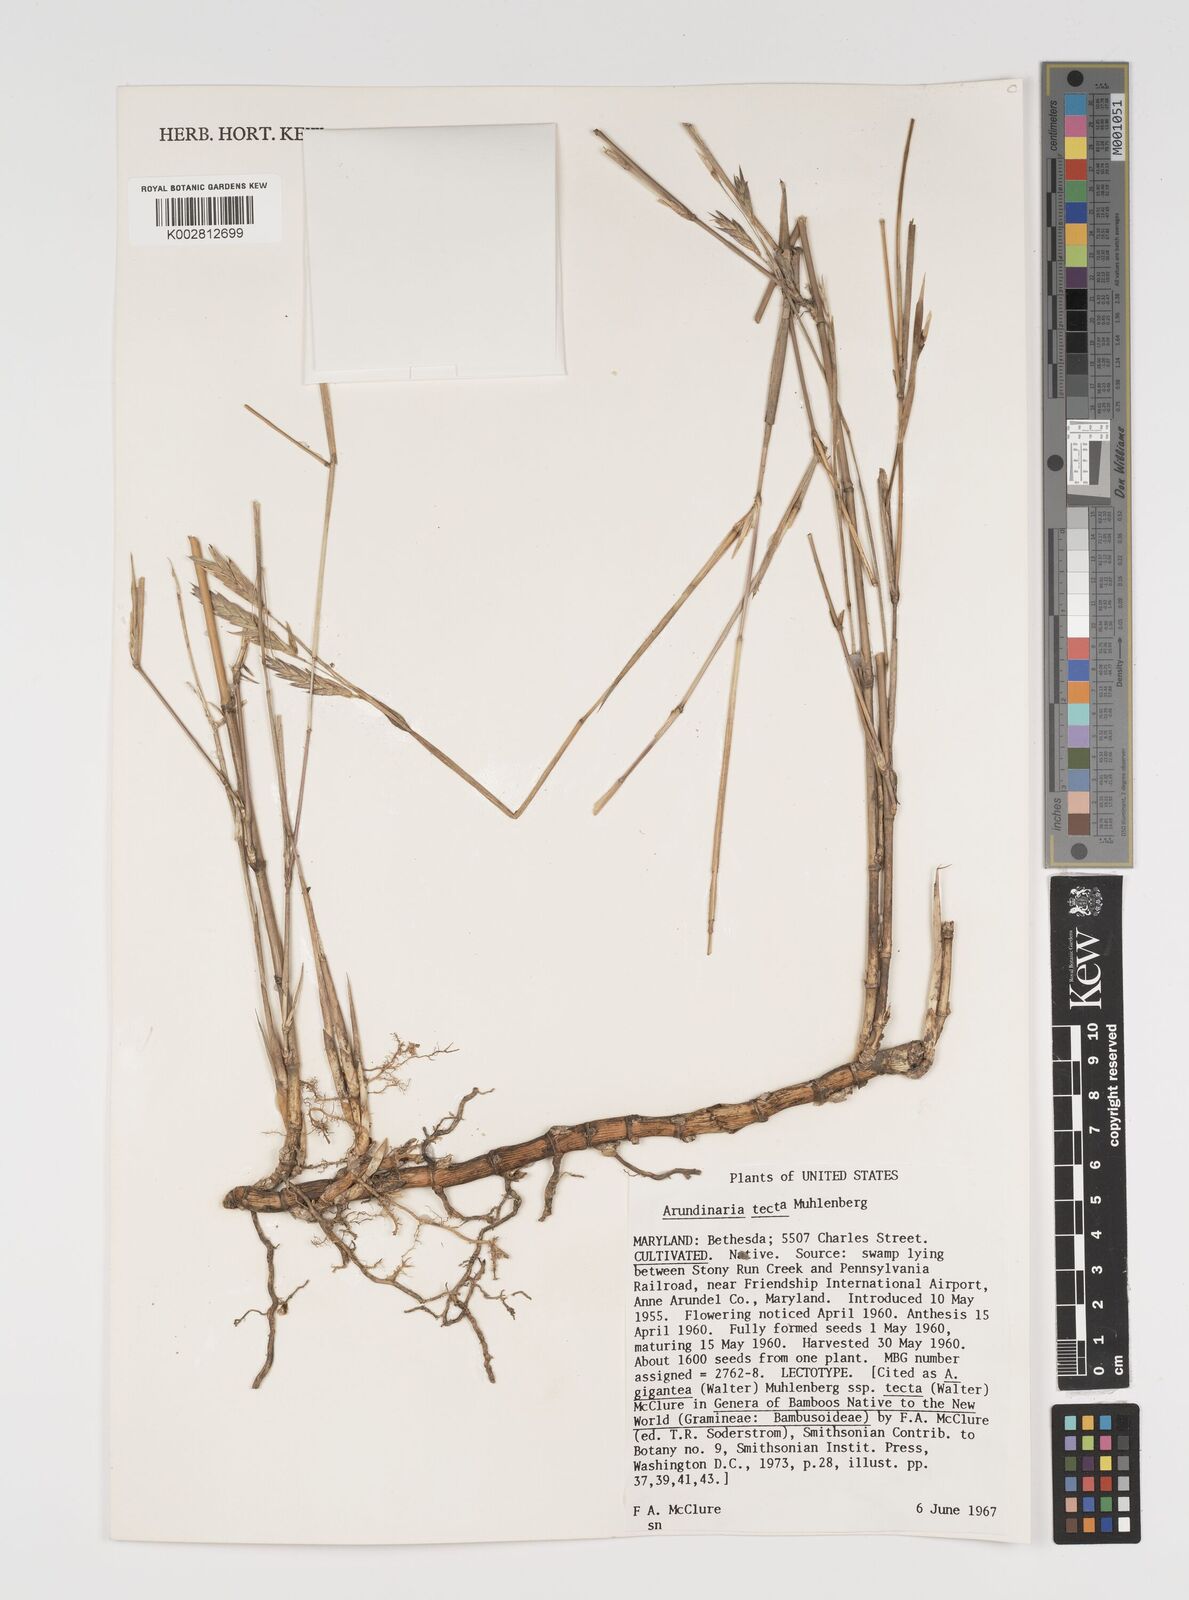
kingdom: Plantae
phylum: Tracheophyta
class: Liliopsida
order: Poales
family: Poaceae
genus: Arundinaria
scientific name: Arundinaria tecta
